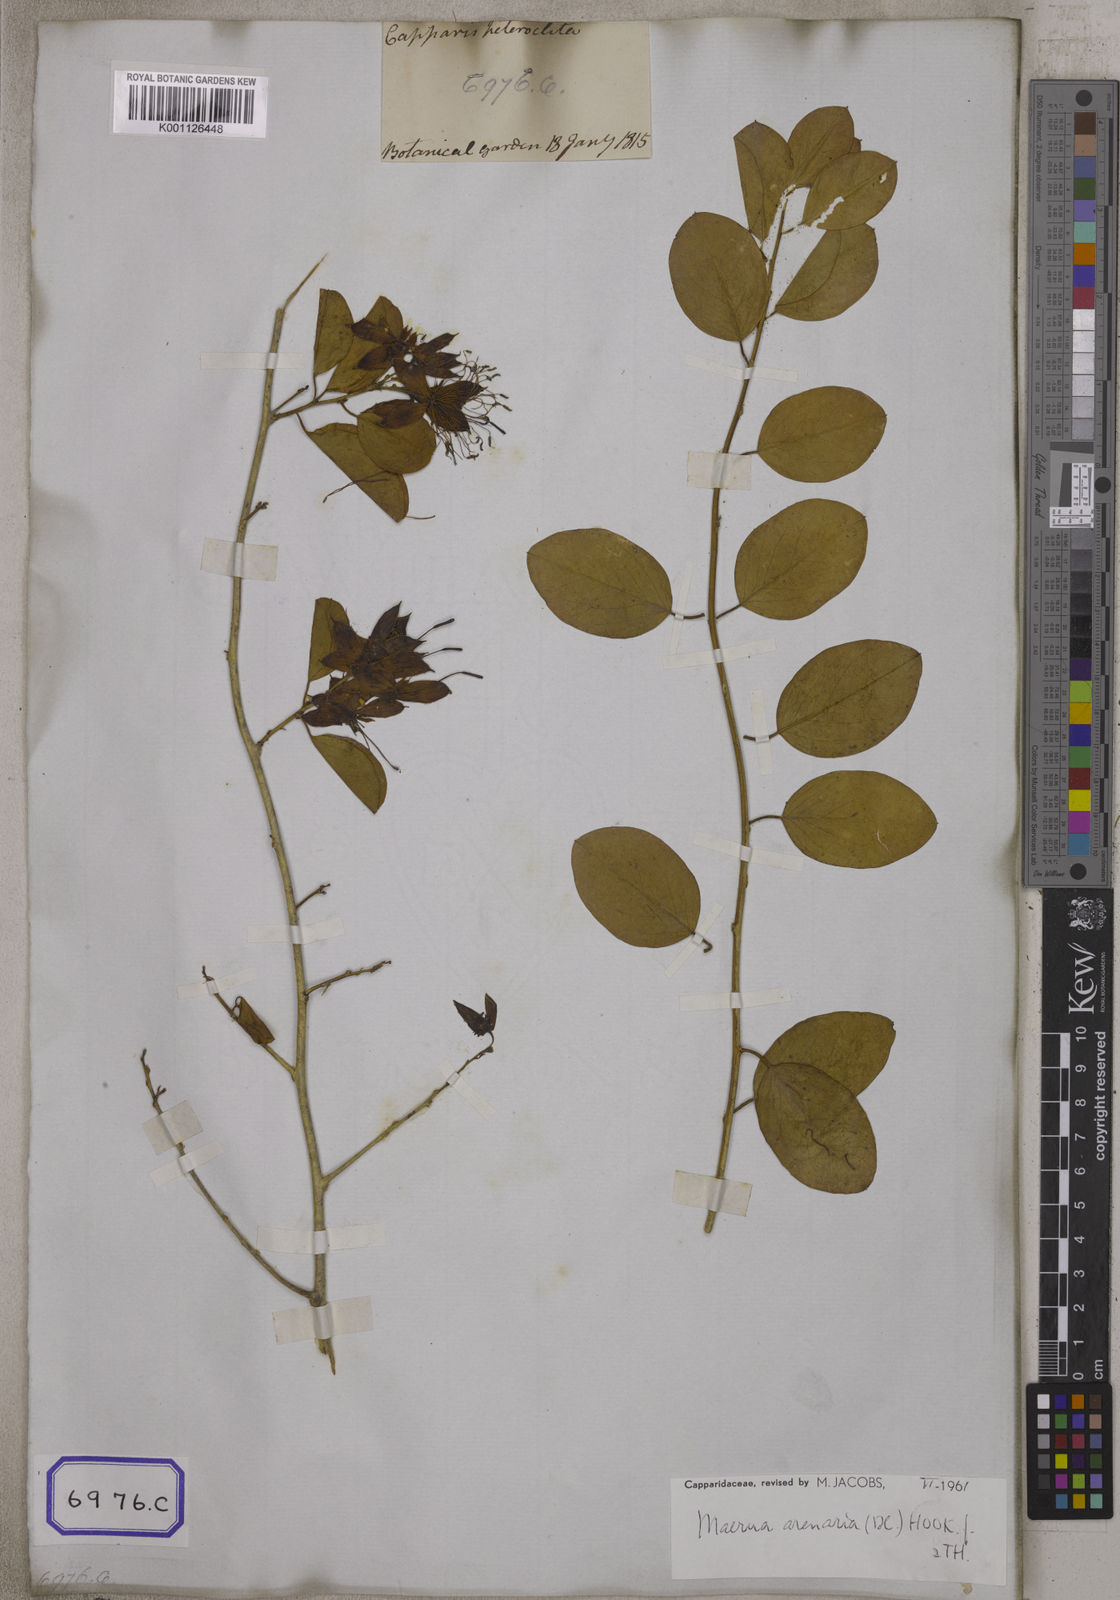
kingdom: Plantae
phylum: Tracheophyta
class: Magnoliopsida
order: Brassicales
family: Capparaceae
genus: Maerua
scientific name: Maerua oblongifolia
